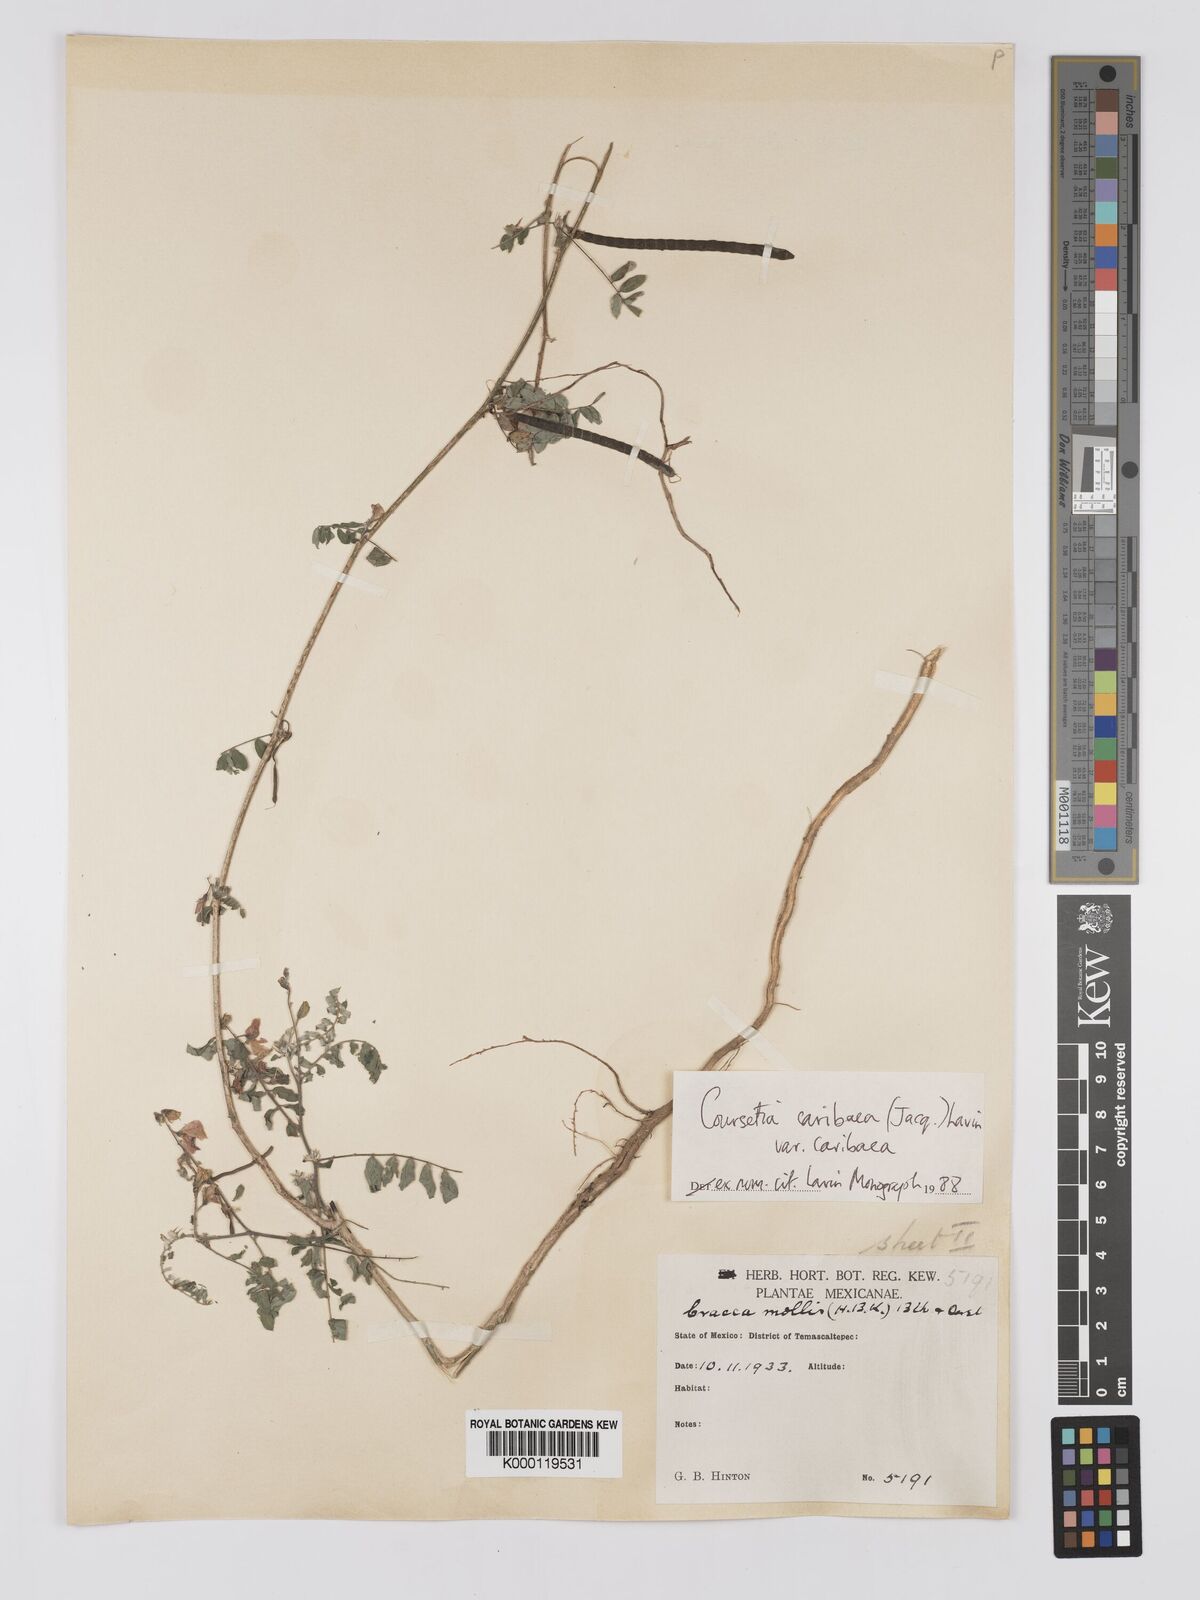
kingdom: Plantae
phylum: Tracheophyta
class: Magnoliopsida
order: Fabales
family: Fabaceae
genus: Coursetia
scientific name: Coursetia caribaea
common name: Anil falso
